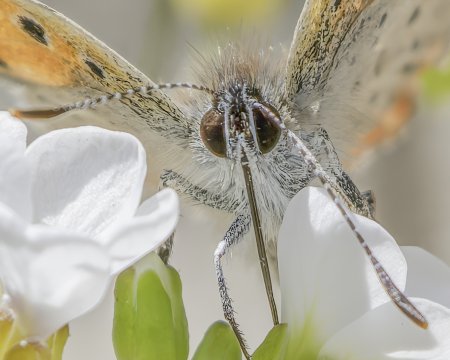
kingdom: Animalia
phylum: Arthropoda
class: Insecta
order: Lepidoptera
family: Lycaenidae
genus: Lycaena
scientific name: Lycaena phlaeas
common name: American Copper
